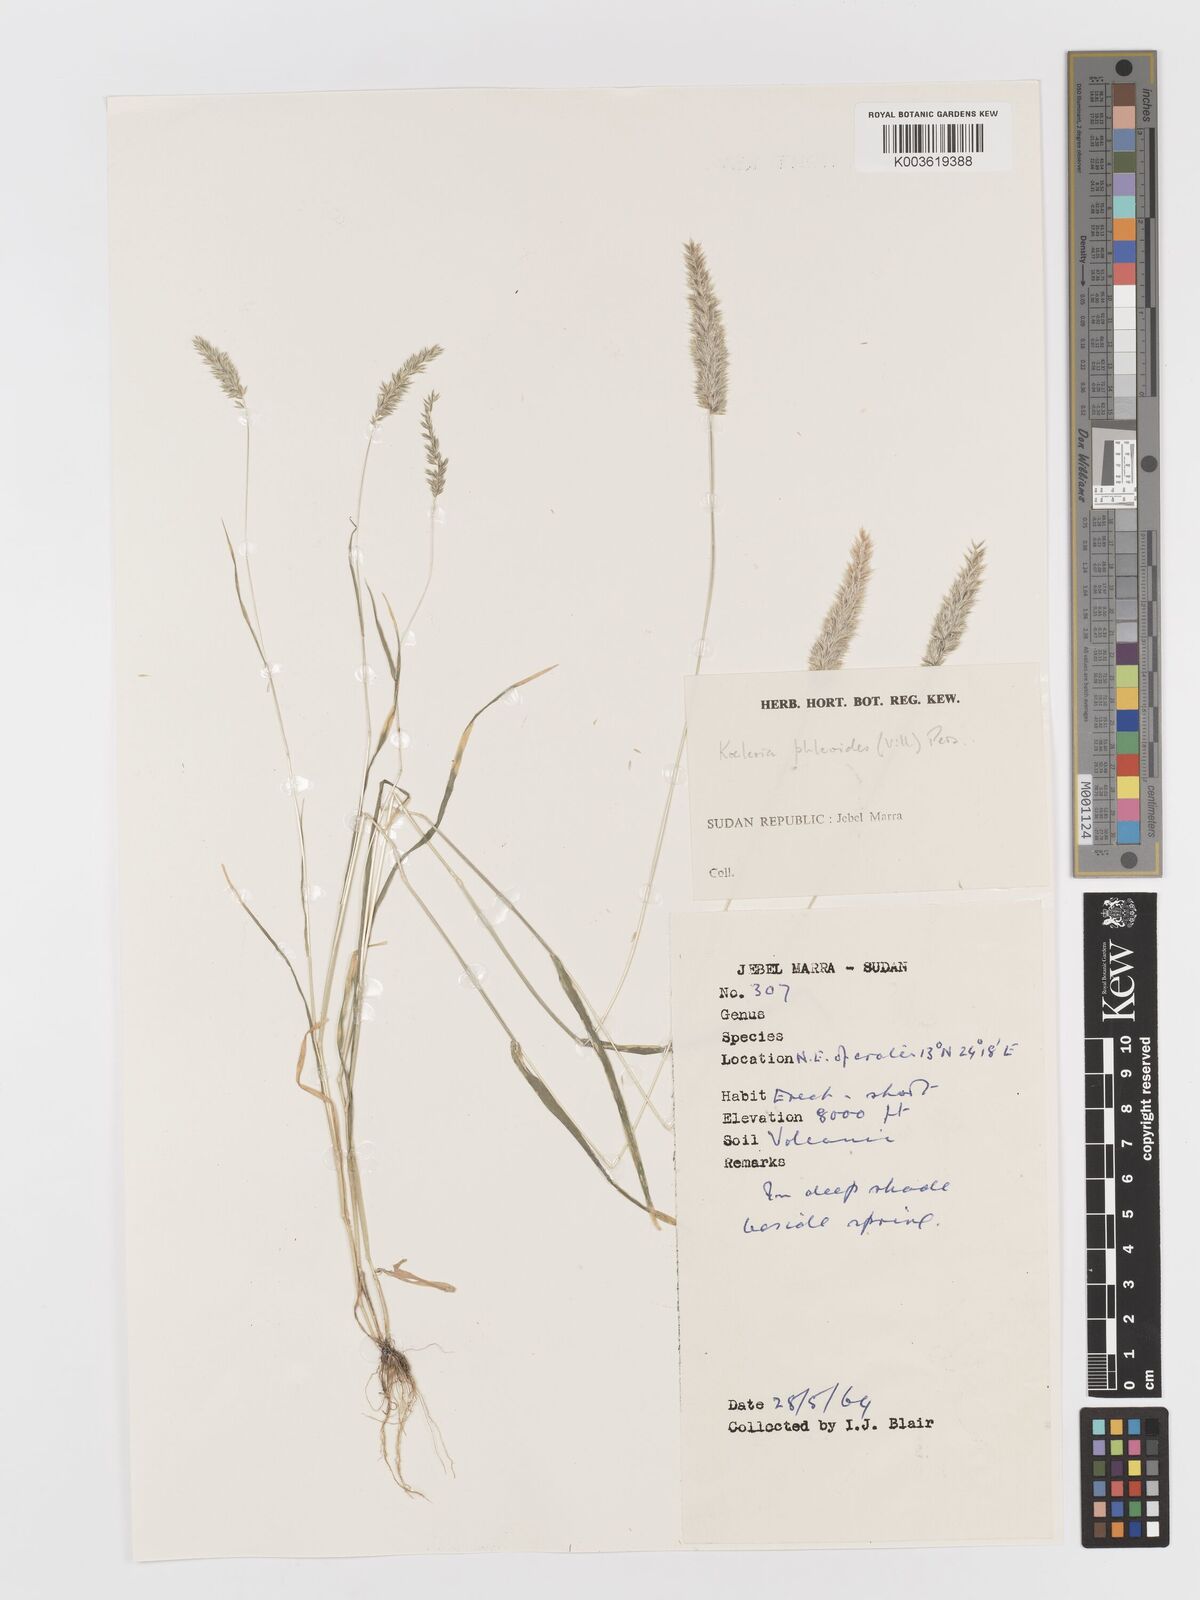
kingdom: Plantae
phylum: Tracheophyta
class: Liliopsida
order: Poales
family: Poaceae
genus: Rostraria
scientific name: Rostraria cristata
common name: Mediterranean hair-grass
